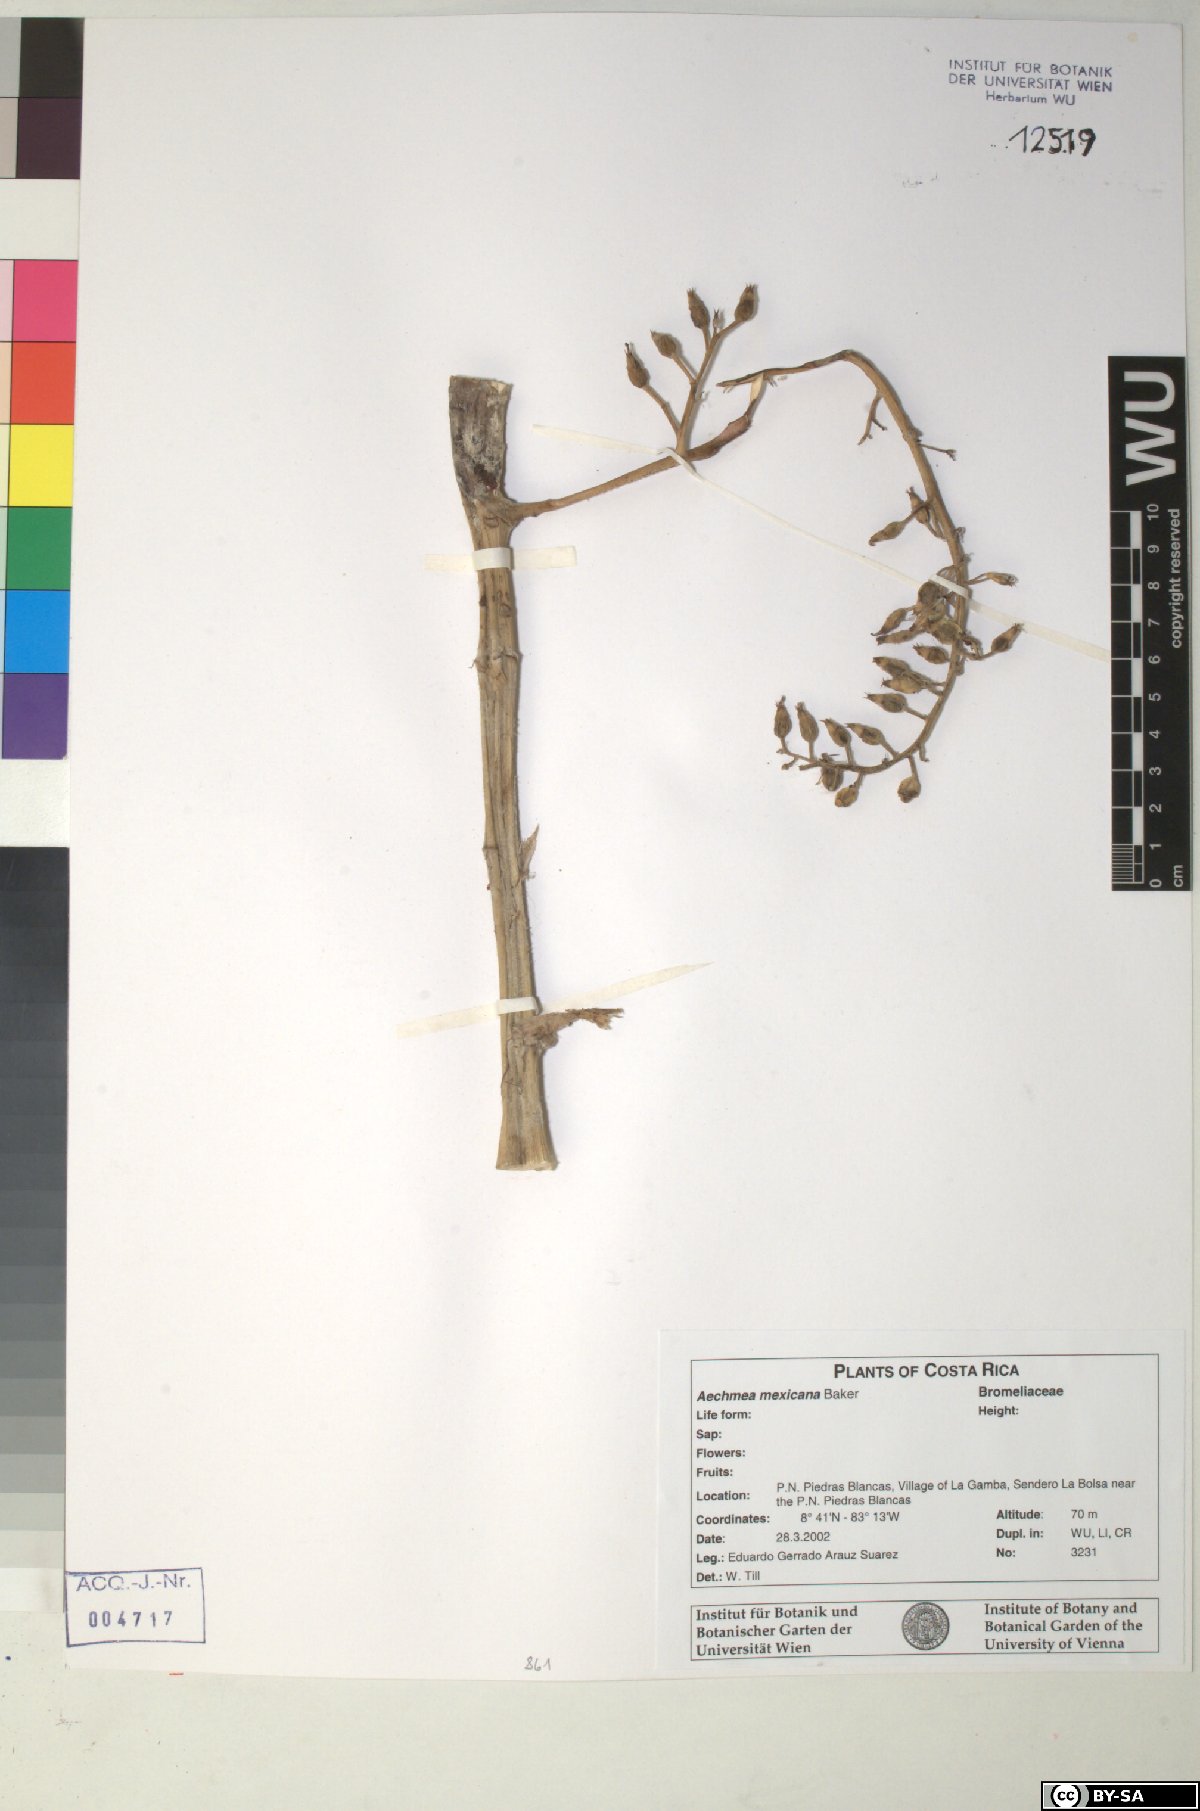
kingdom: Plantae
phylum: Tracheophyta
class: Liliopsida
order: Poales
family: Bromeliaceae
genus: Aechmea
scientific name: Aechmea mexicana
